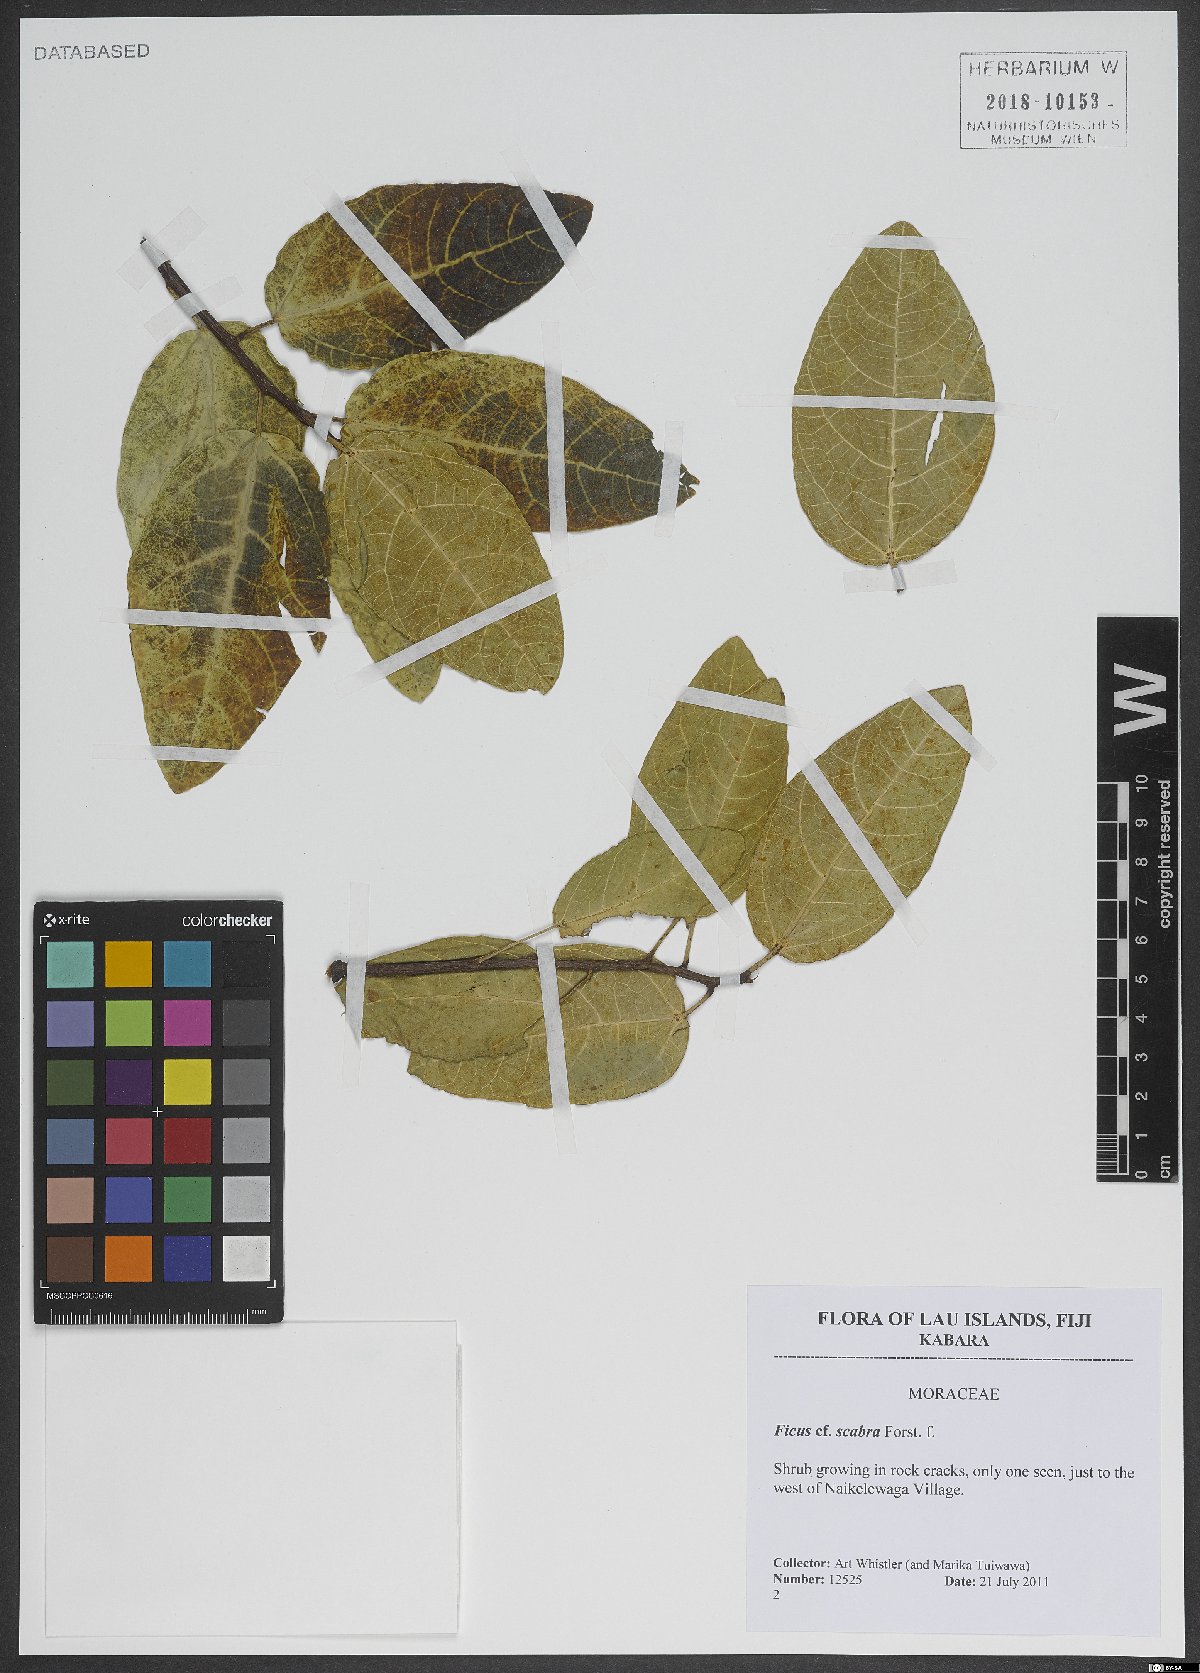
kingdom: Plantae
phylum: Tracheophyta
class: Magnoliopsida
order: Rosales
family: Moraceae
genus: Ficus
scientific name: Ficus scabra
